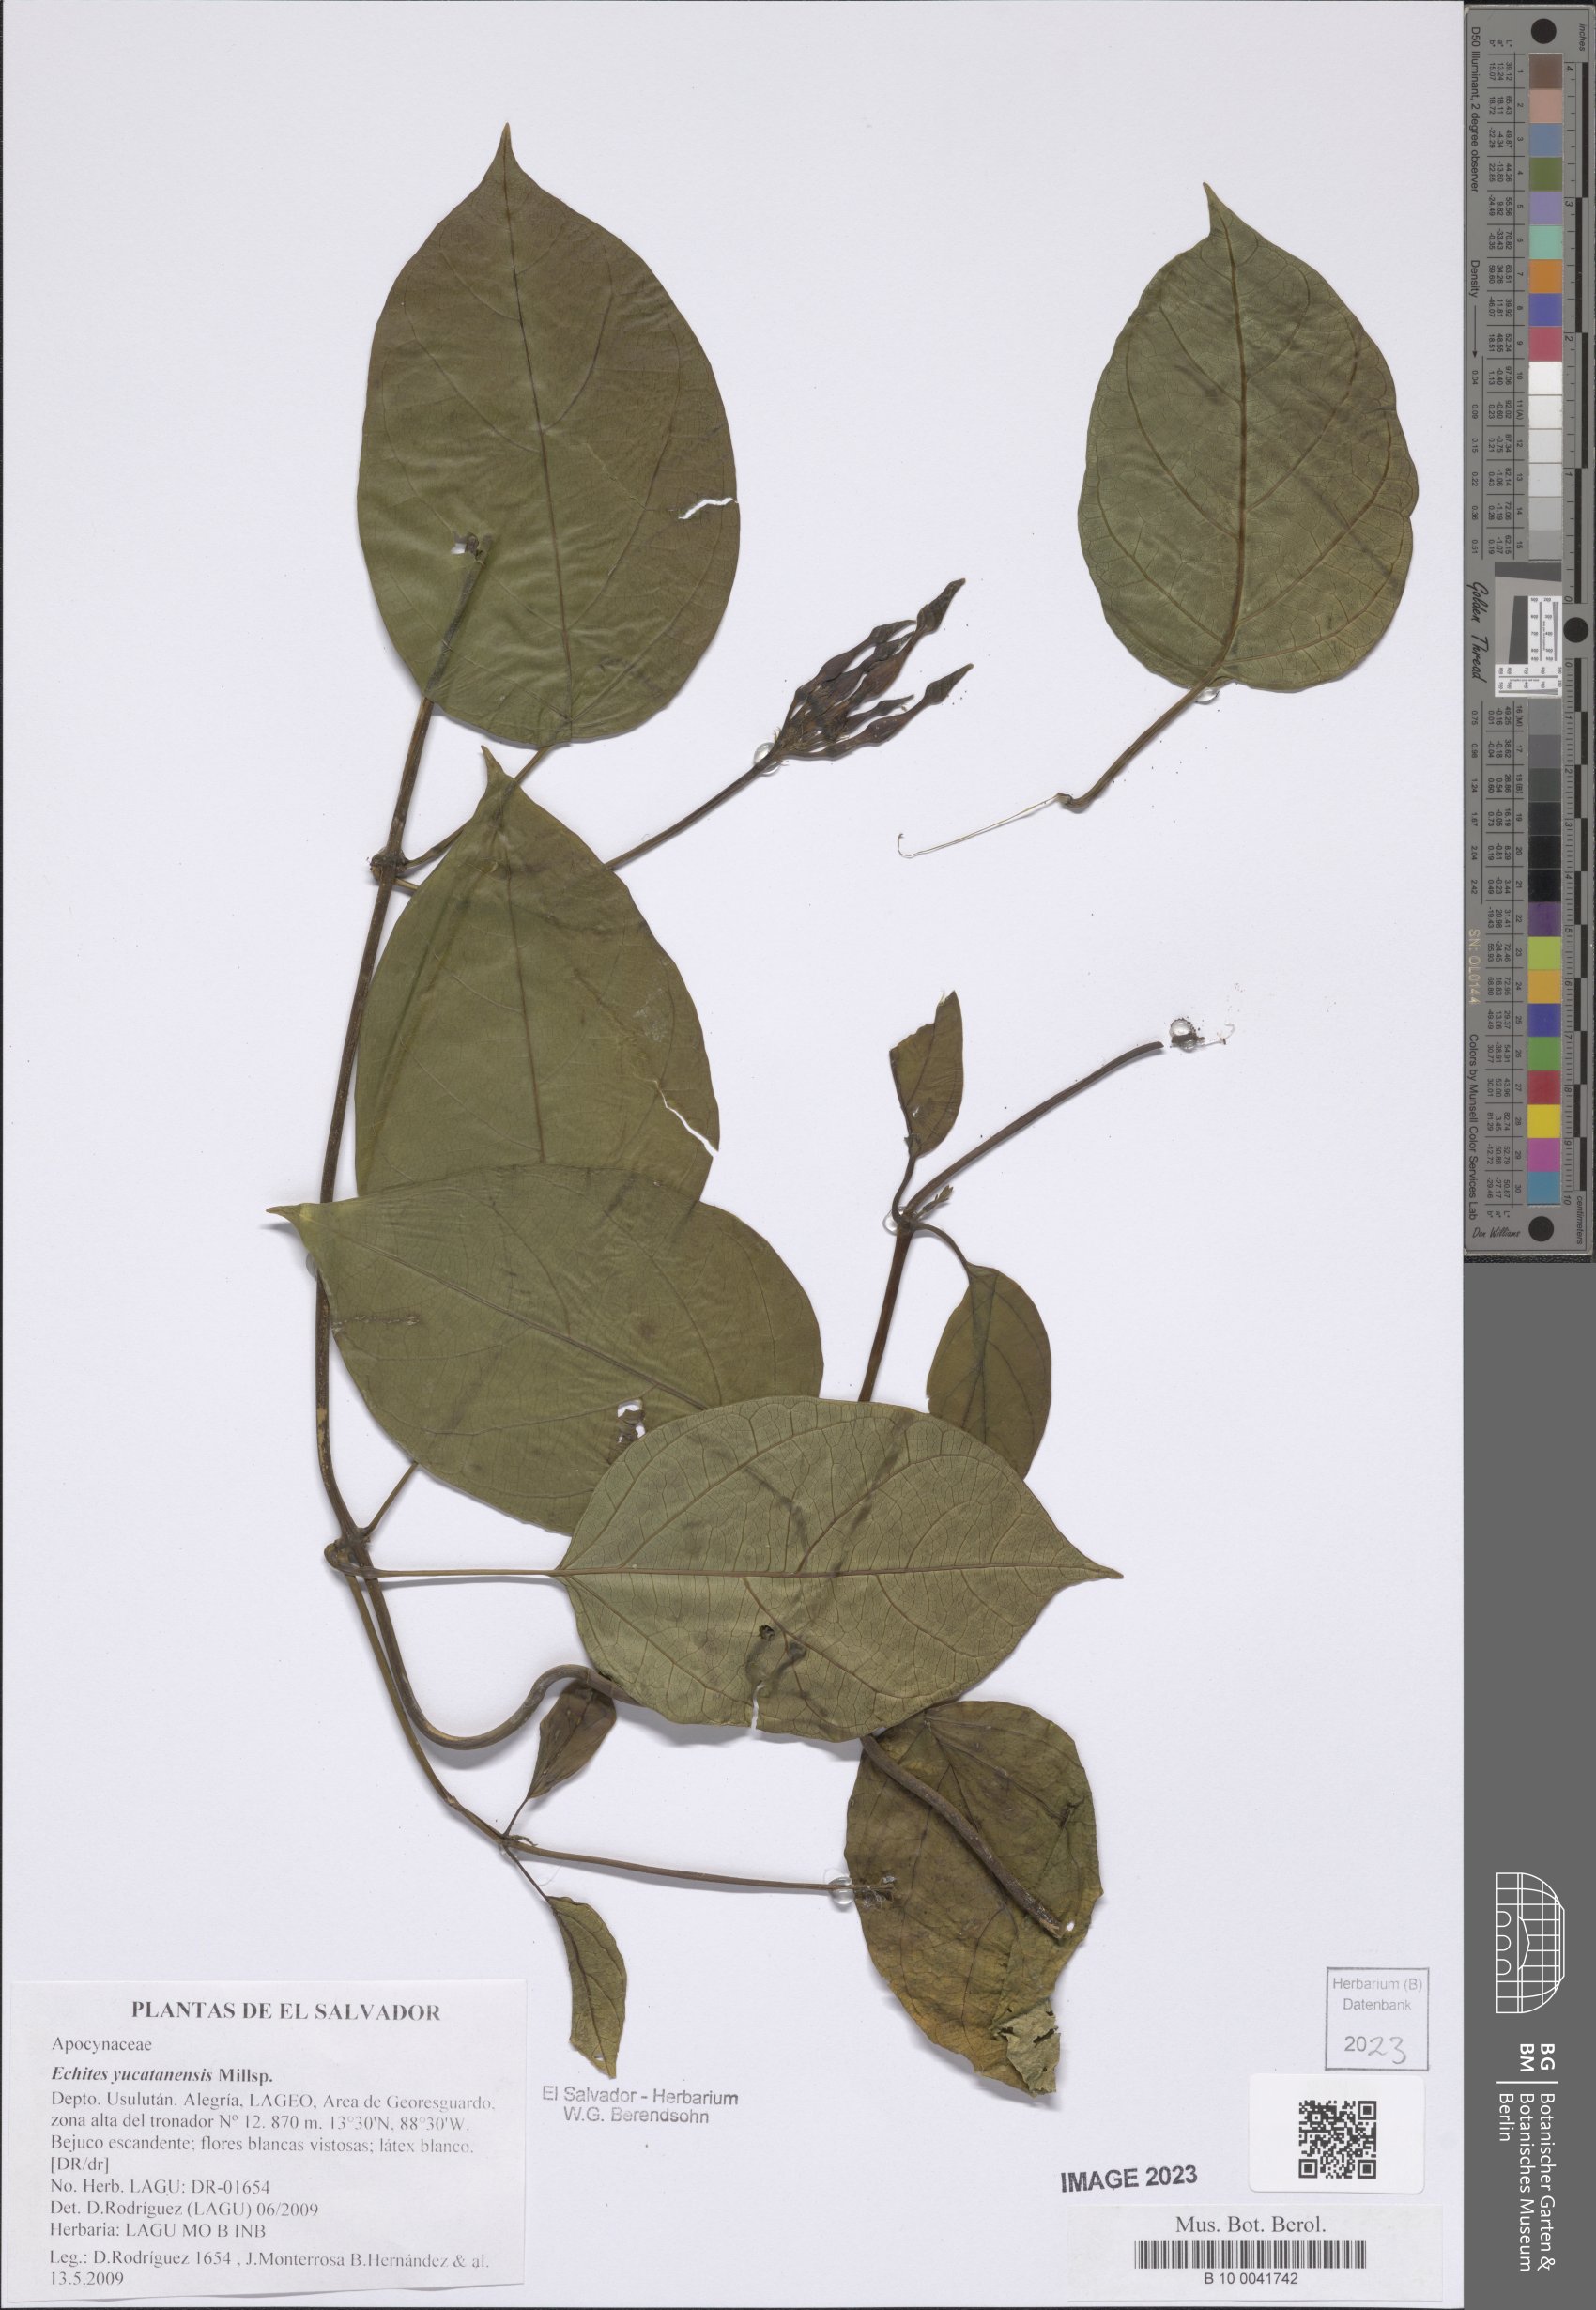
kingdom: Plantae
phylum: Tracheophyta
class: Magnoliopsida
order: Gentianales
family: Apocynaceae
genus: Echites
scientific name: Echites yucatanensis
